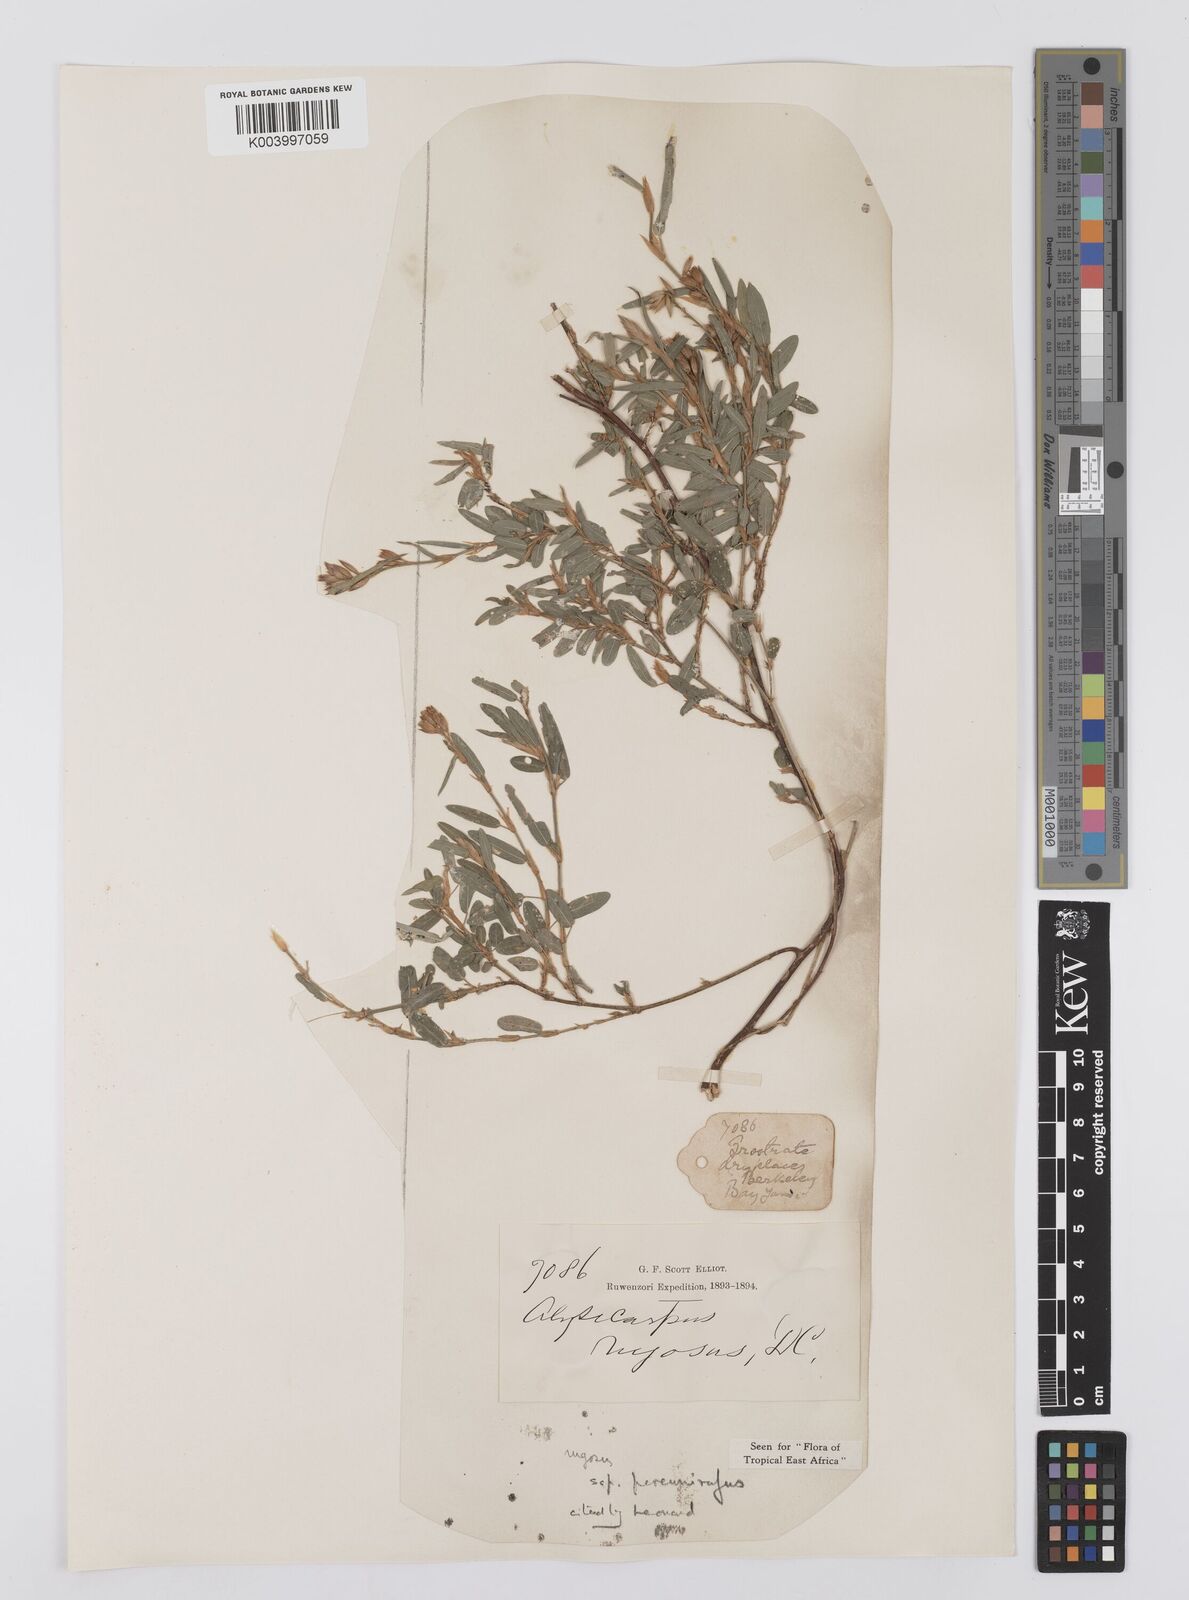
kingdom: Plantae
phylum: Tracheophyta
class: Magnoliopsida
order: Fabales
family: Fabaceae
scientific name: Fabaceae
